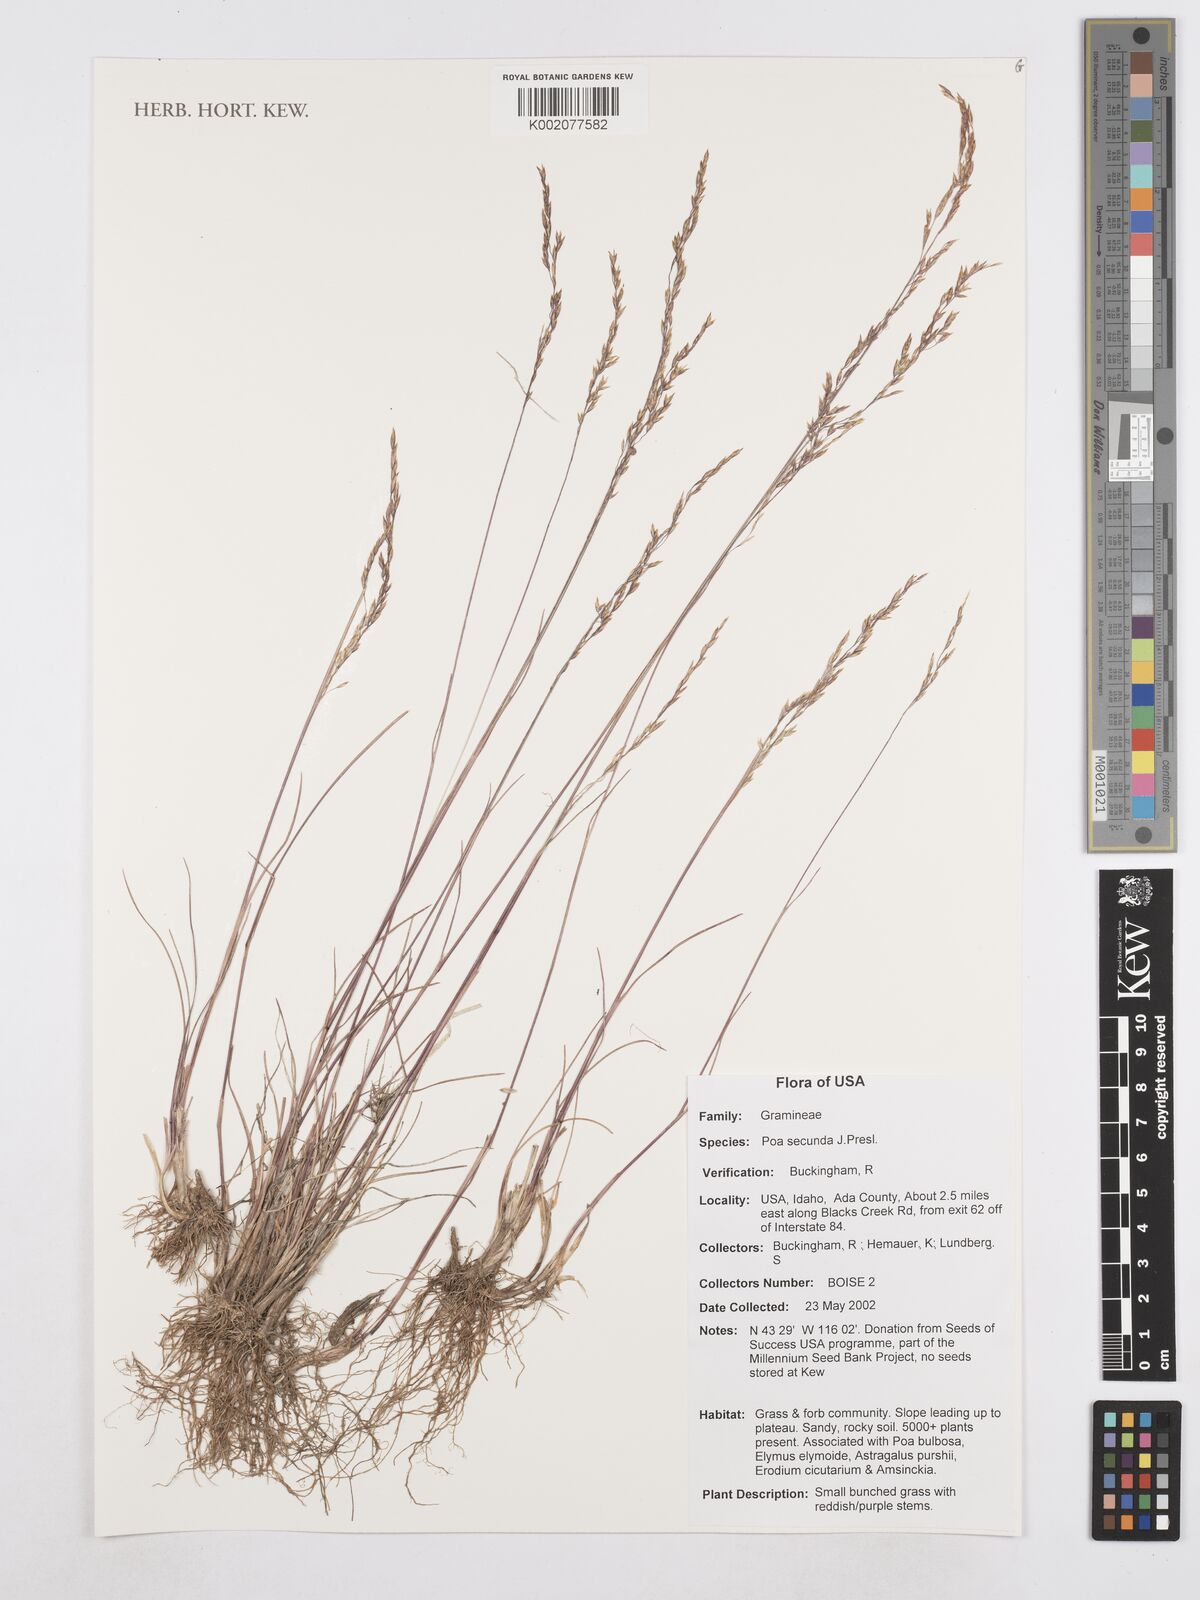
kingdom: Plantae
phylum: Tracheophyta
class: Liliopsida
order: Poales
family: Poaceae
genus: Poa
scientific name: Poa secunda
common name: Sandberg bluegrass
